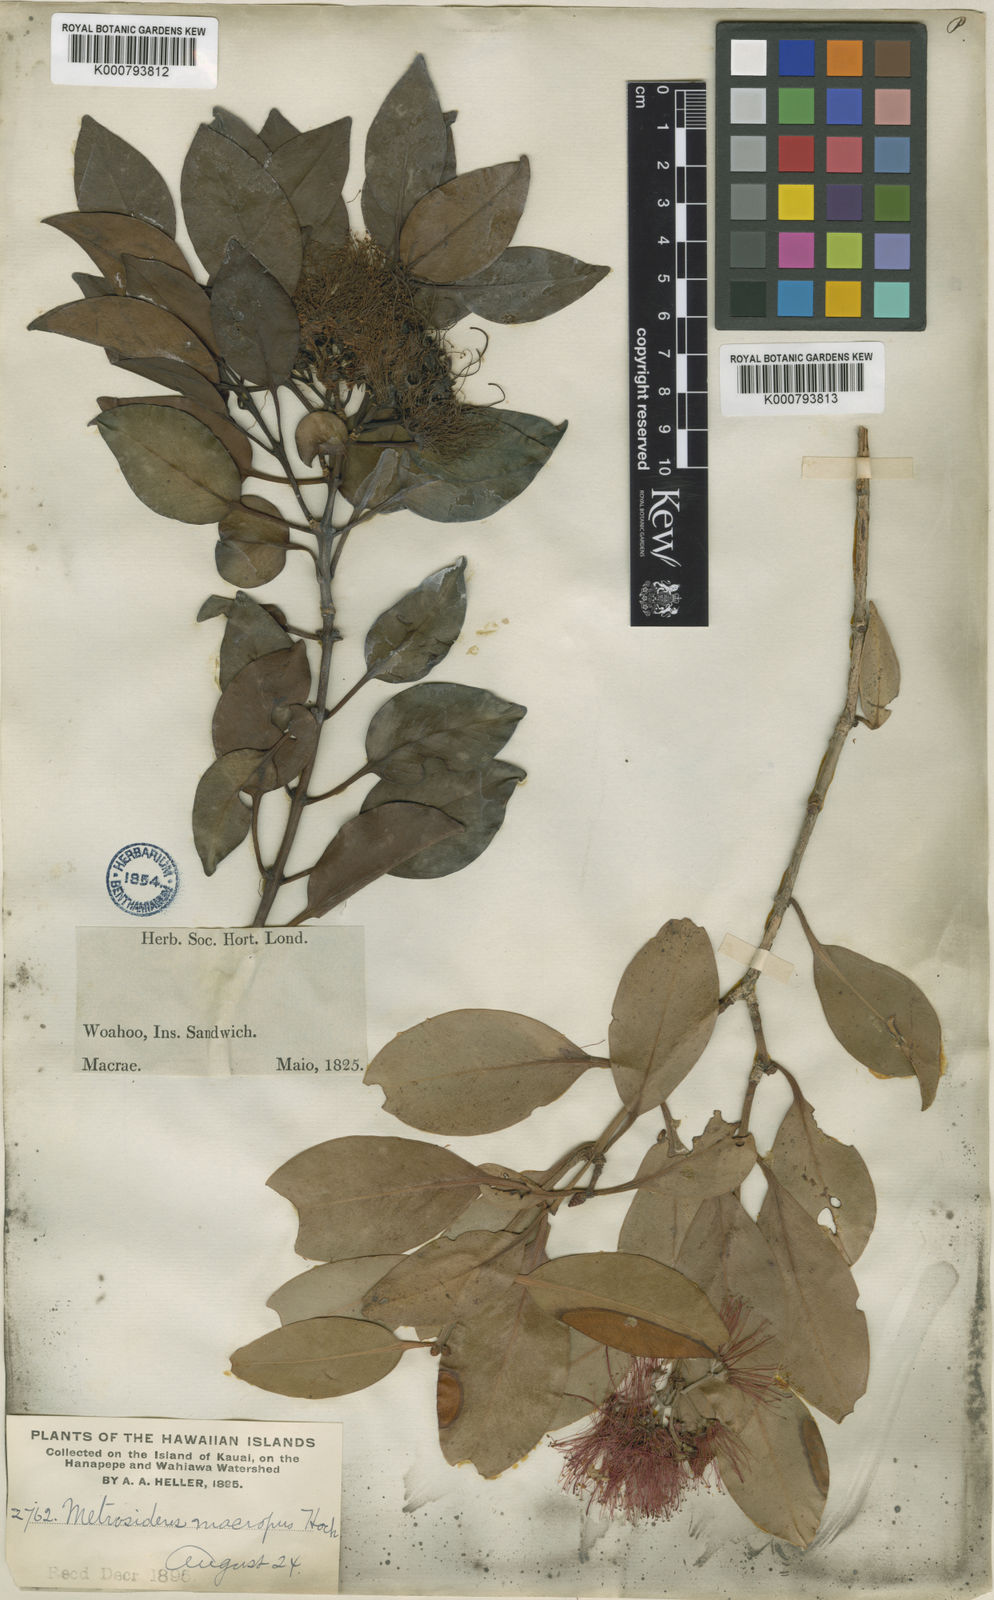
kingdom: Plantae
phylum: Tracheophyta
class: Magnoliopsida
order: Myrtales
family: Myrtaceae
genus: Metrosideros
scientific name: Metrosideros macropus
